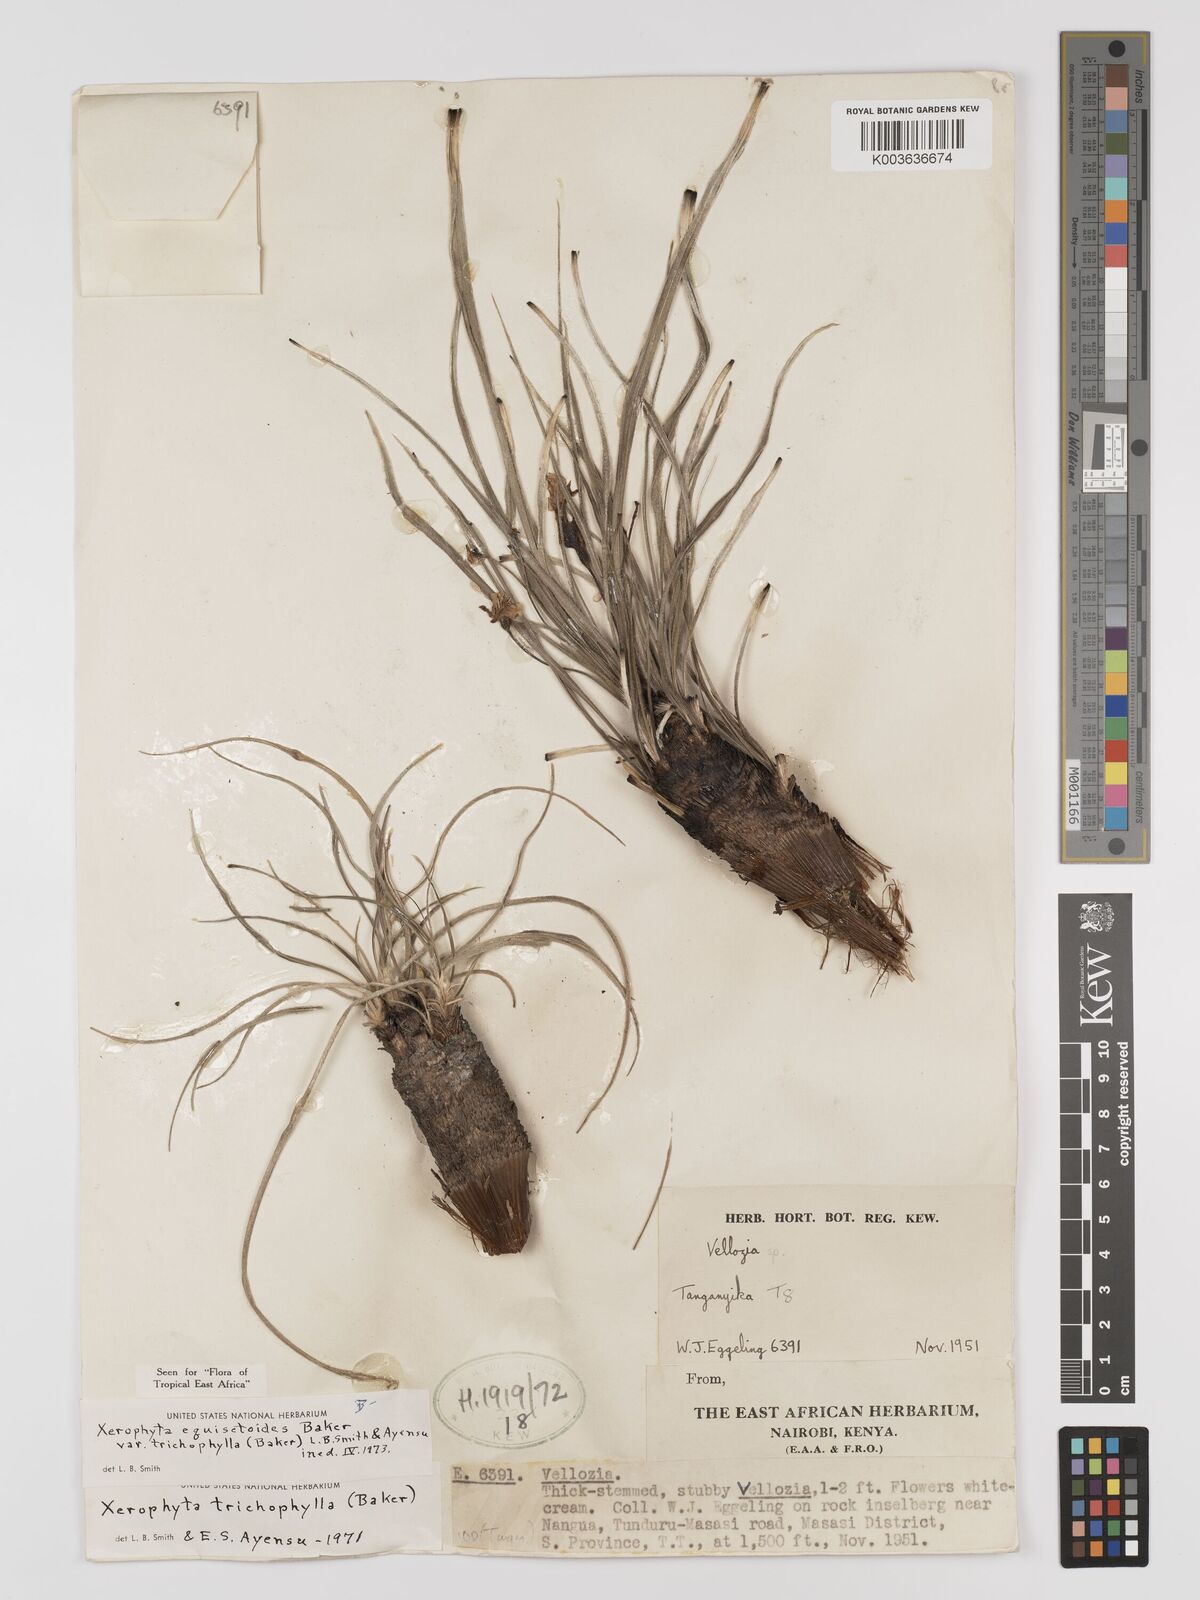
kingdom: Plantae
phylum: Tracheophyta
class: Liliopsida
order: Pandanales
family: Velloziaceae
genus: Xerophyta
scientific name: Xerophyta trichophylla
